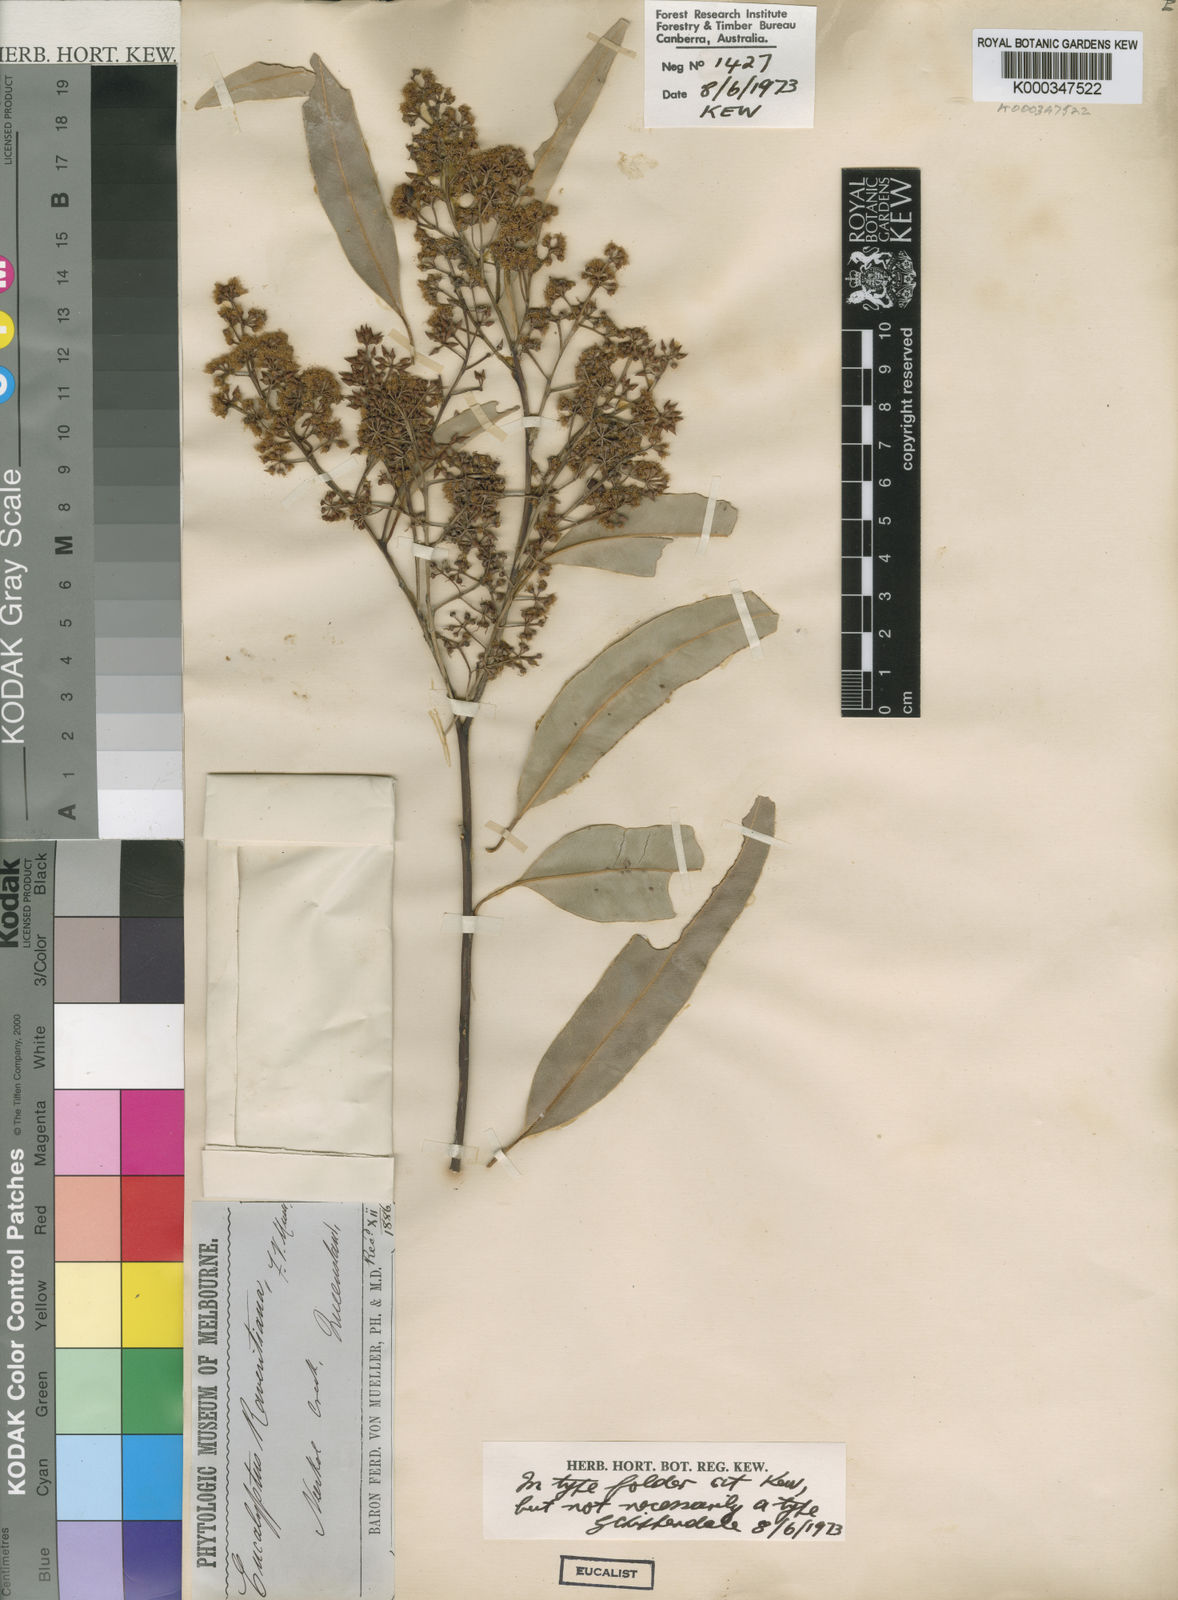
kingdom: Plantae
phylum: Tracheophyta
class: Magnoliopsida
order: Myrtales
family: Myrtaceae
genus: Eucalyptus
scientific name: Eucalyptus raveretiana
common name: Black ironbox
